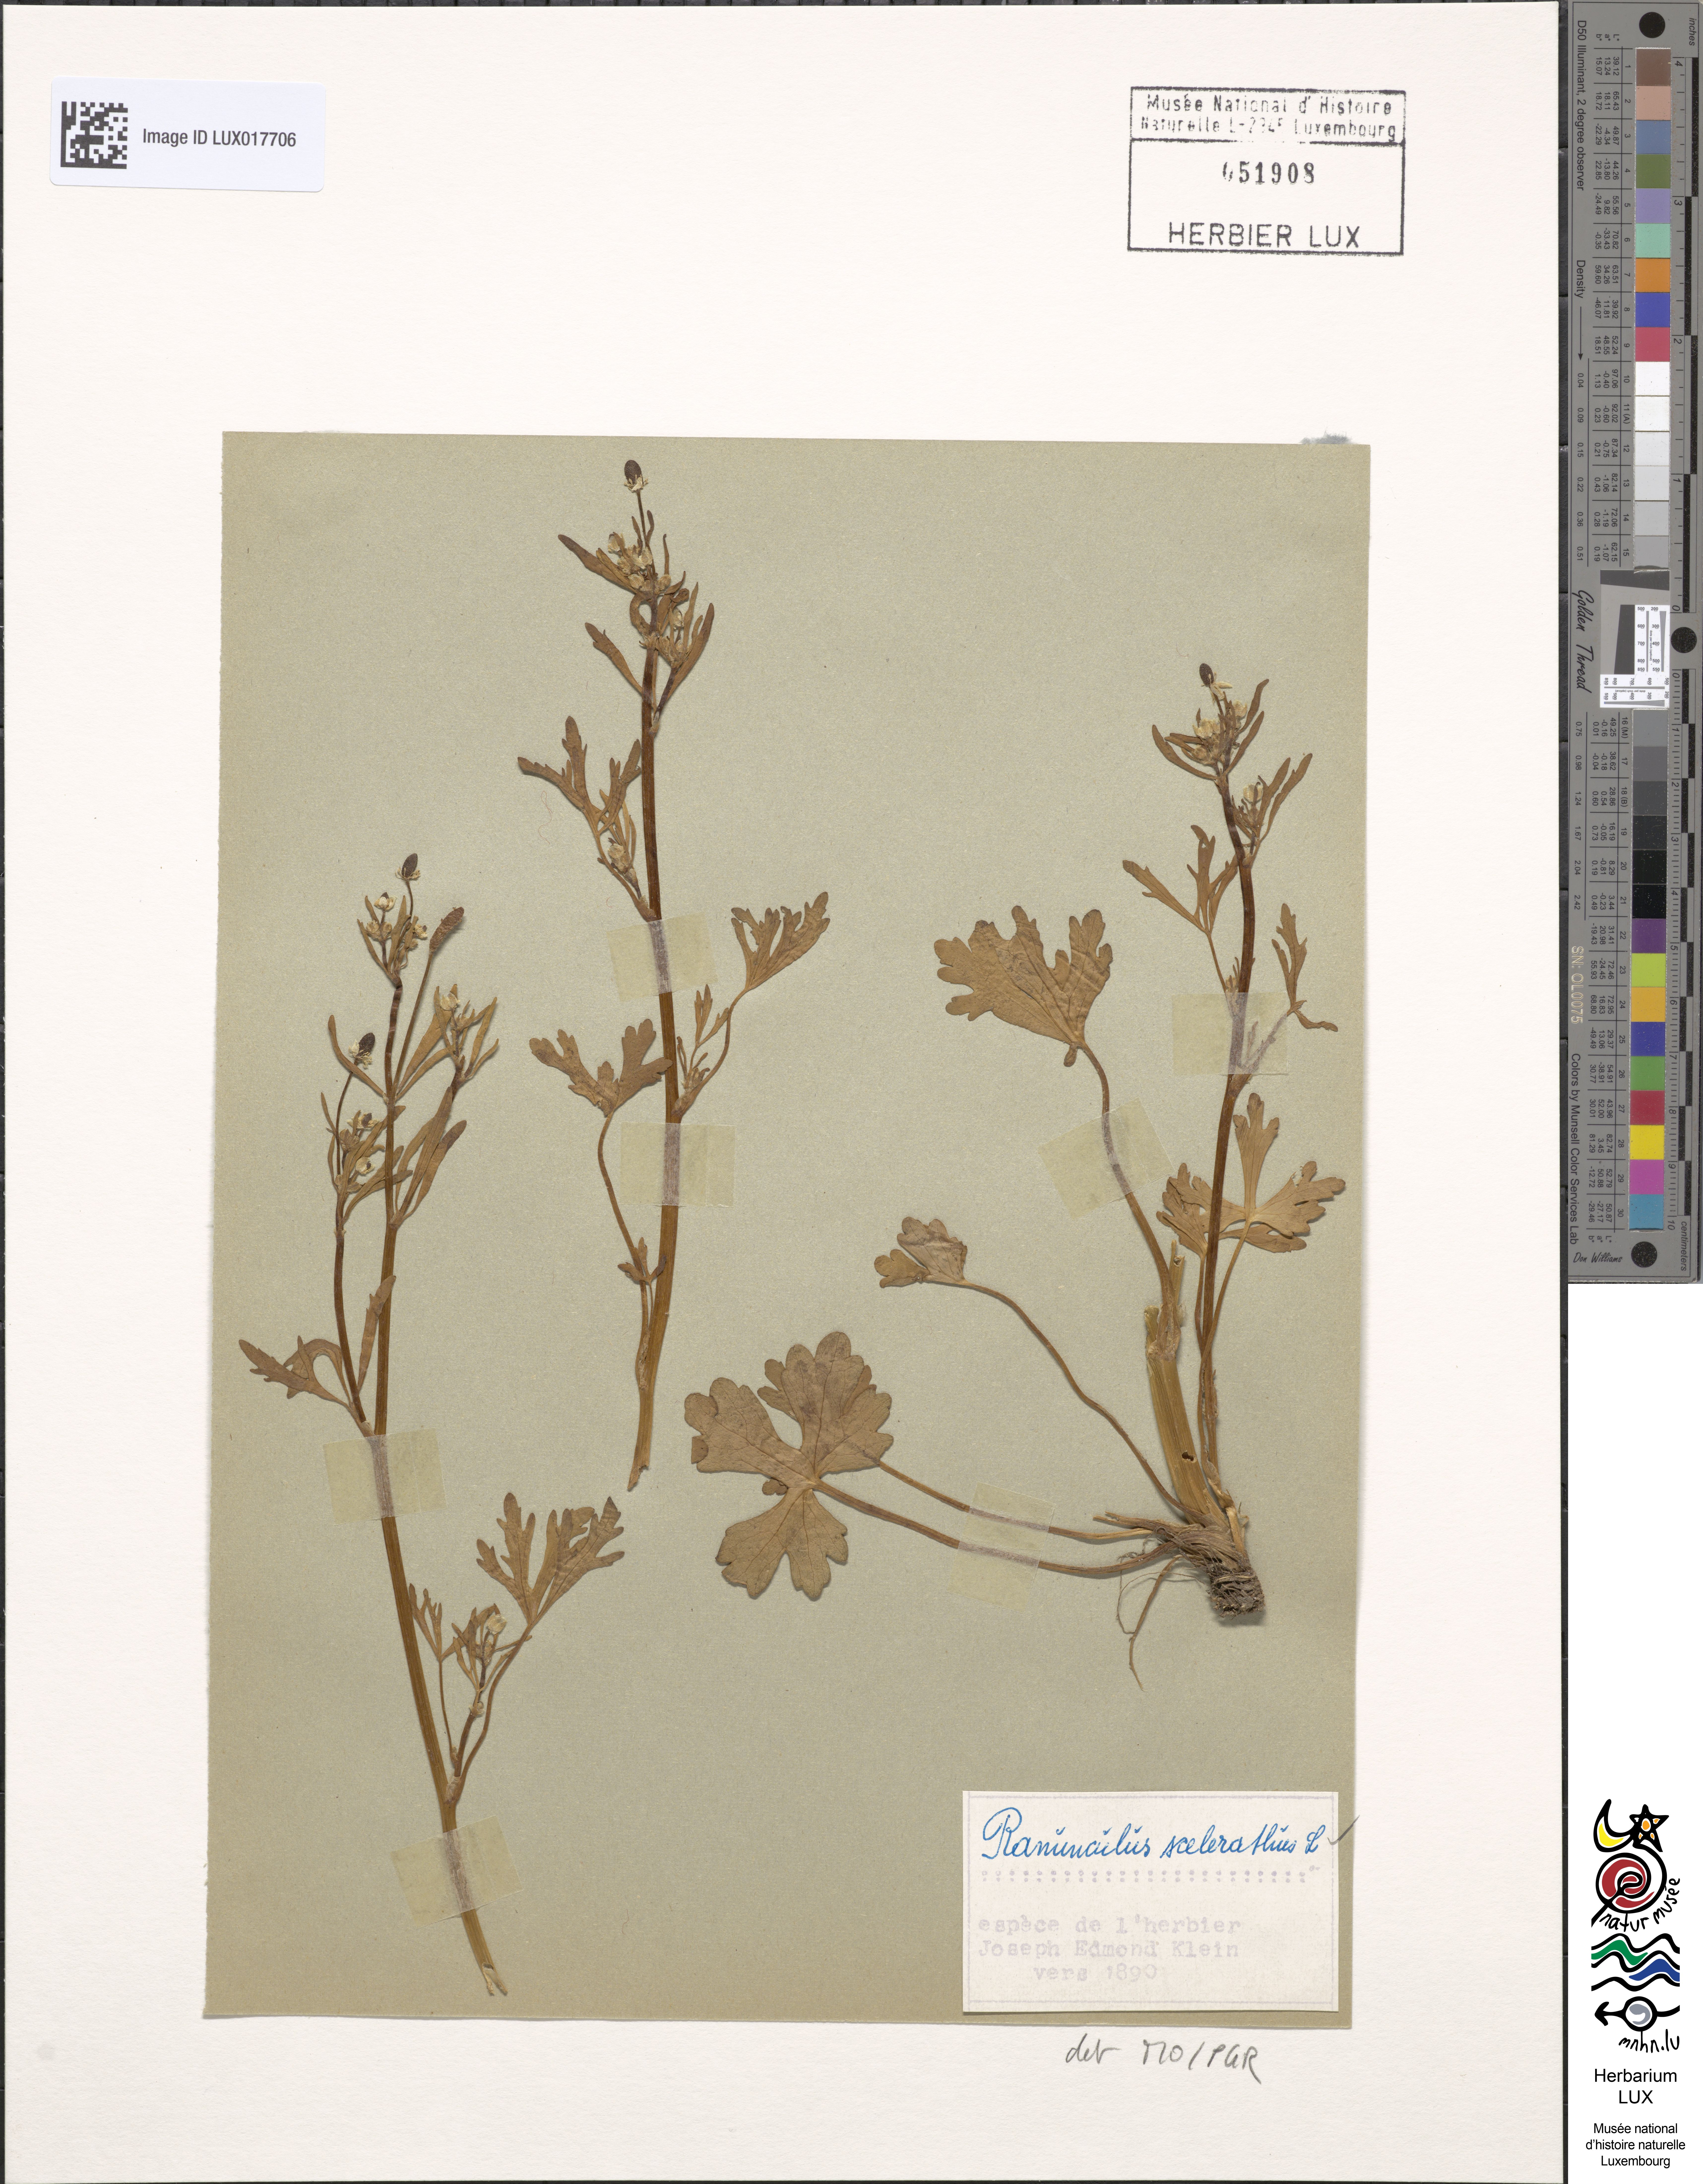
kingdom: Plantae
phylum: Tracheophyta
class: Magnoliopsida
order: Ranunculales
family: Ranunculaceae
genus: Ranunculus
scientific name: Ranunculus sceleratus
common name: Celery-leaved buttercup
